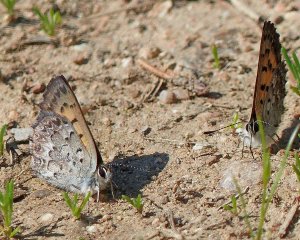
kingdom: Animalia
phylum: Arthropoda
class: Insecta
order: Lepidoptera
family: Lycaenidae
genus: Lycaena
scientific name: Lycaena mariposa
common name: Mariposa Copper
